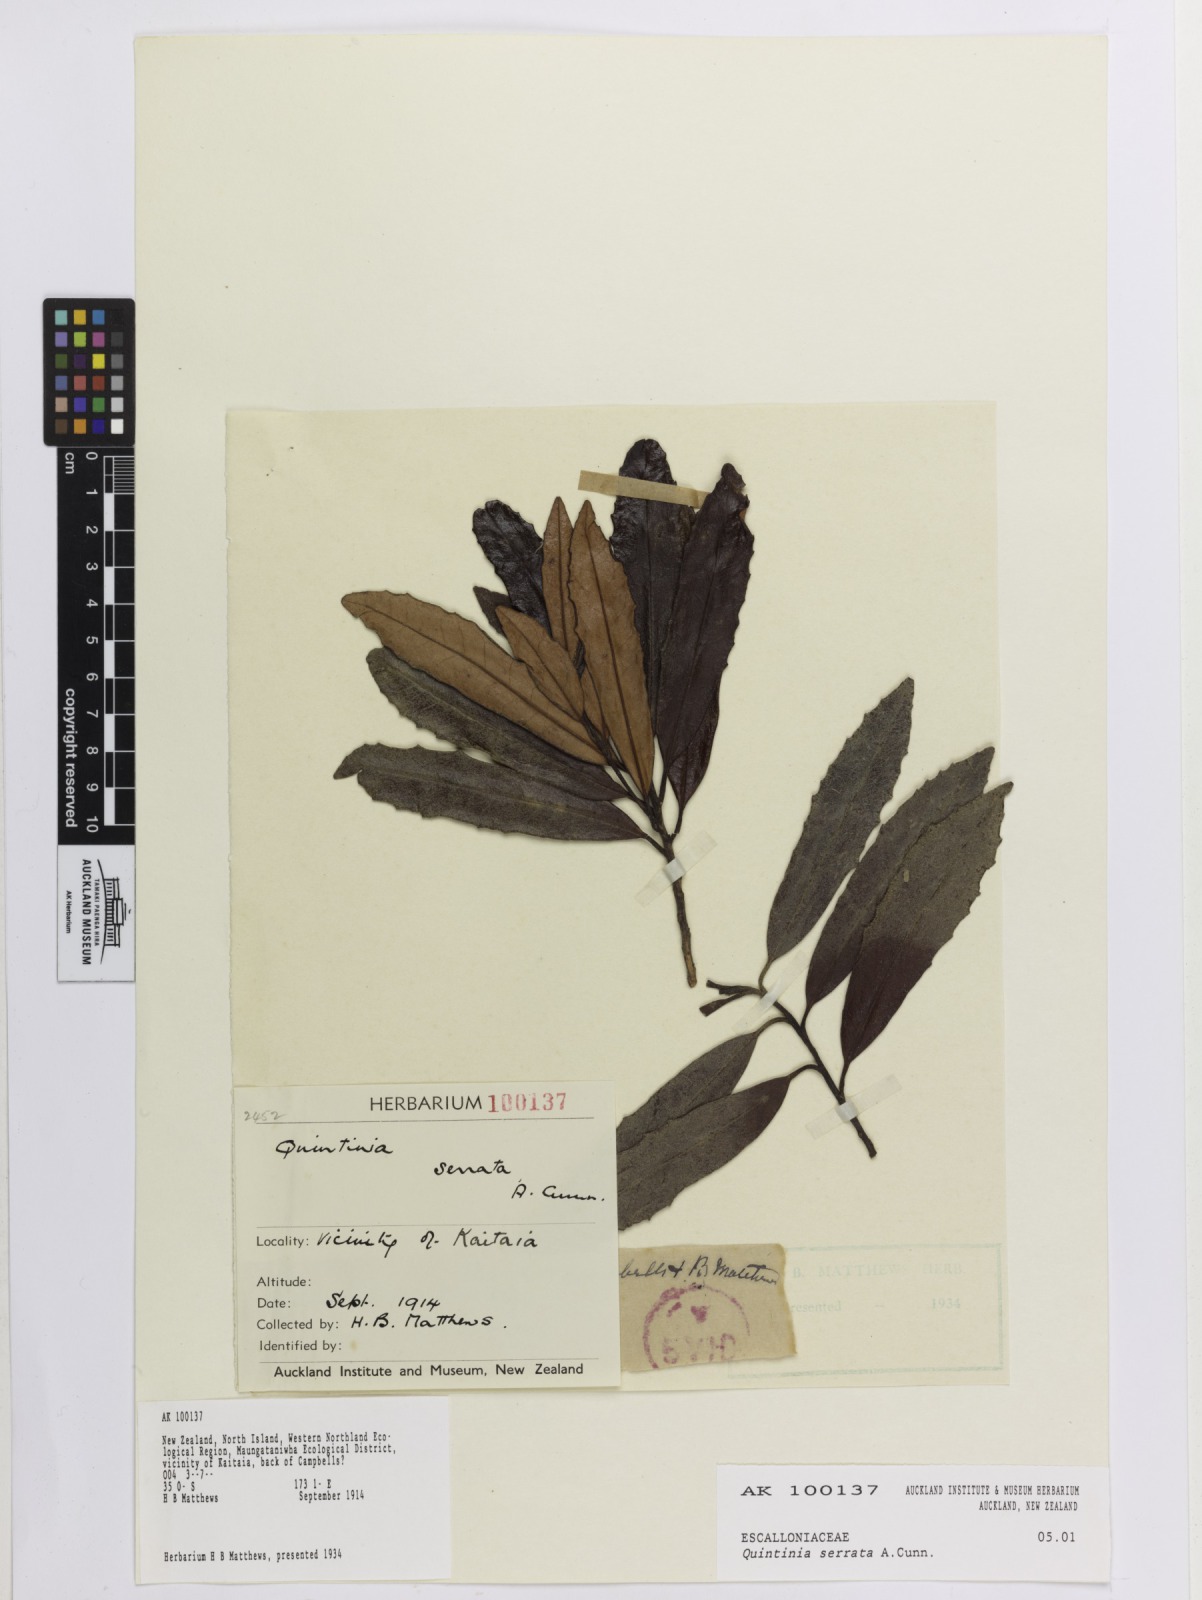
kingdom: Plantae
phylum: Tracheophyta
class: Magnoliopsida
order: Paracryphiales
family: Paracryphiaceae
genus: Quintinia
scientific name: Quintinia serrata
